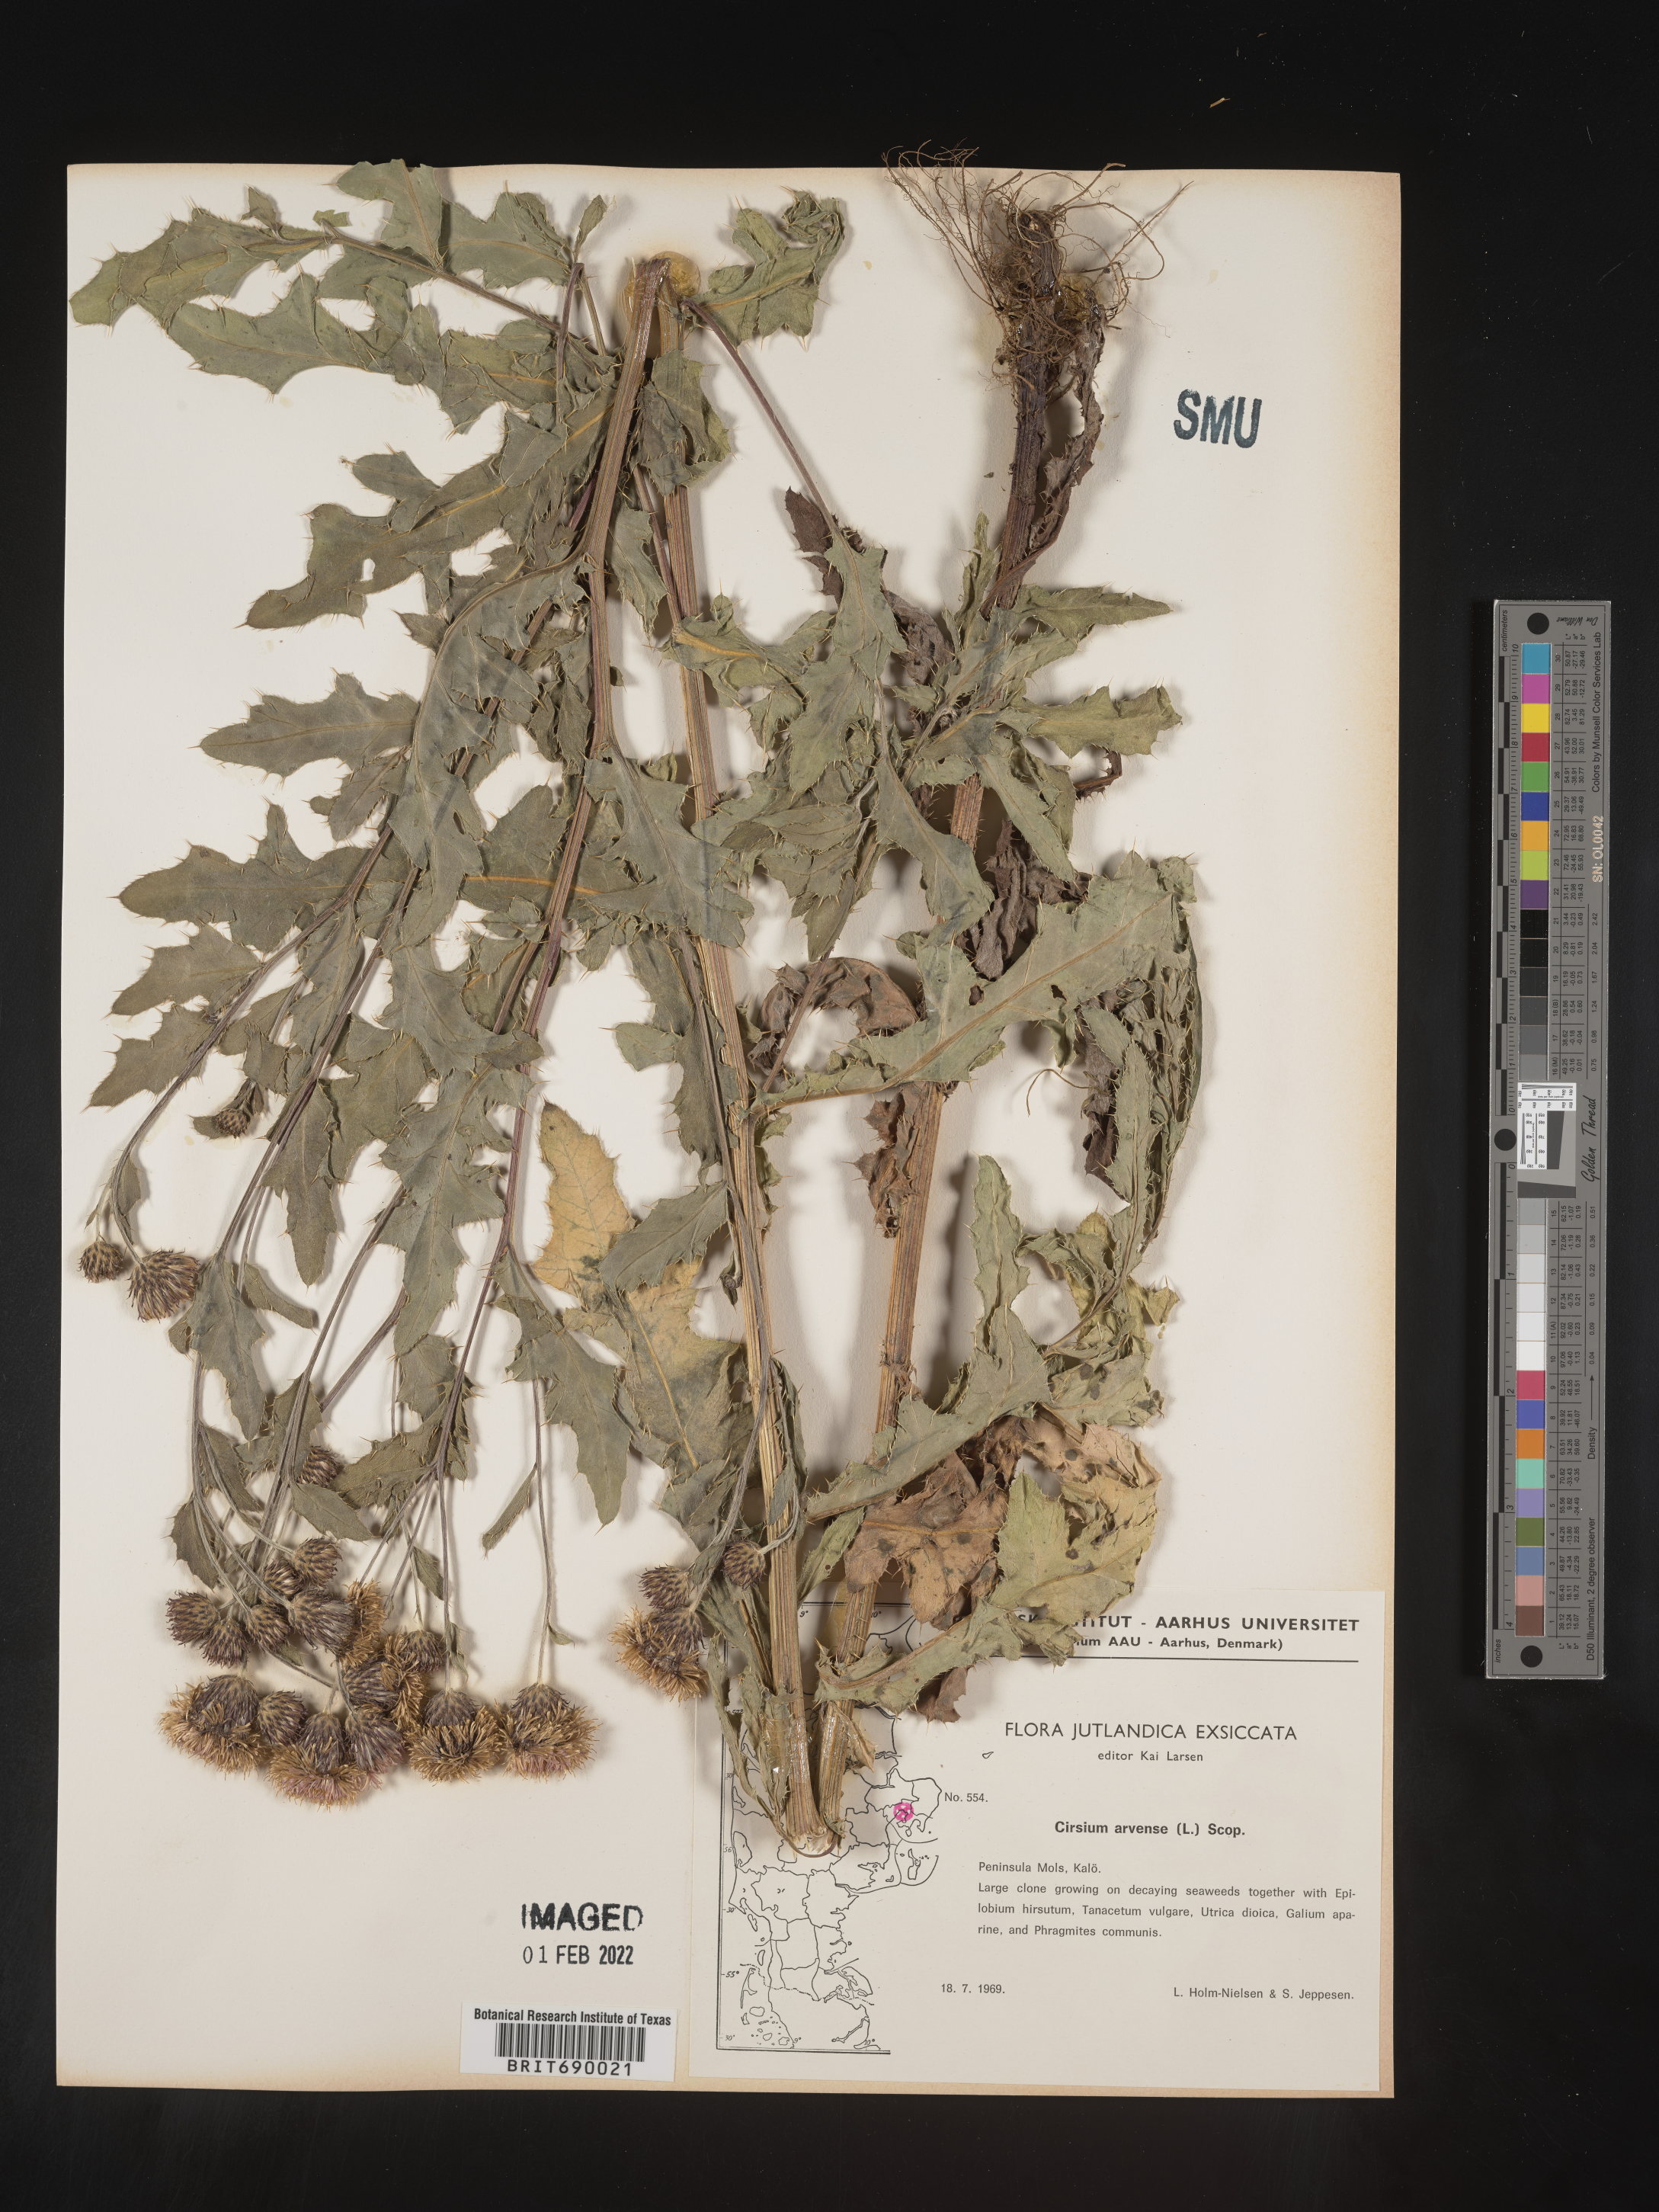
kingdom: Plantae
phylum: Tracheophyta
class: Magnoliopsida
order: Asterales
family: Asteraceae
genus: Cirsium
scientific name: Cirsium
